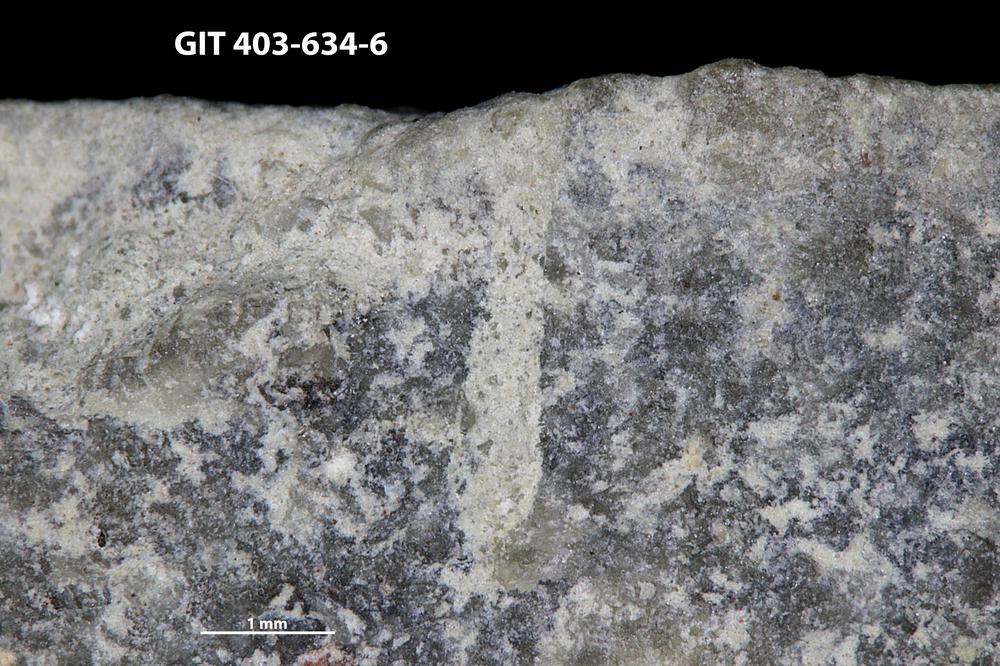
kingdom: Animalia
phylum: Annelida
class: Polychaeta
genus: Palaeosabella
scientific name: Palaeosabella
